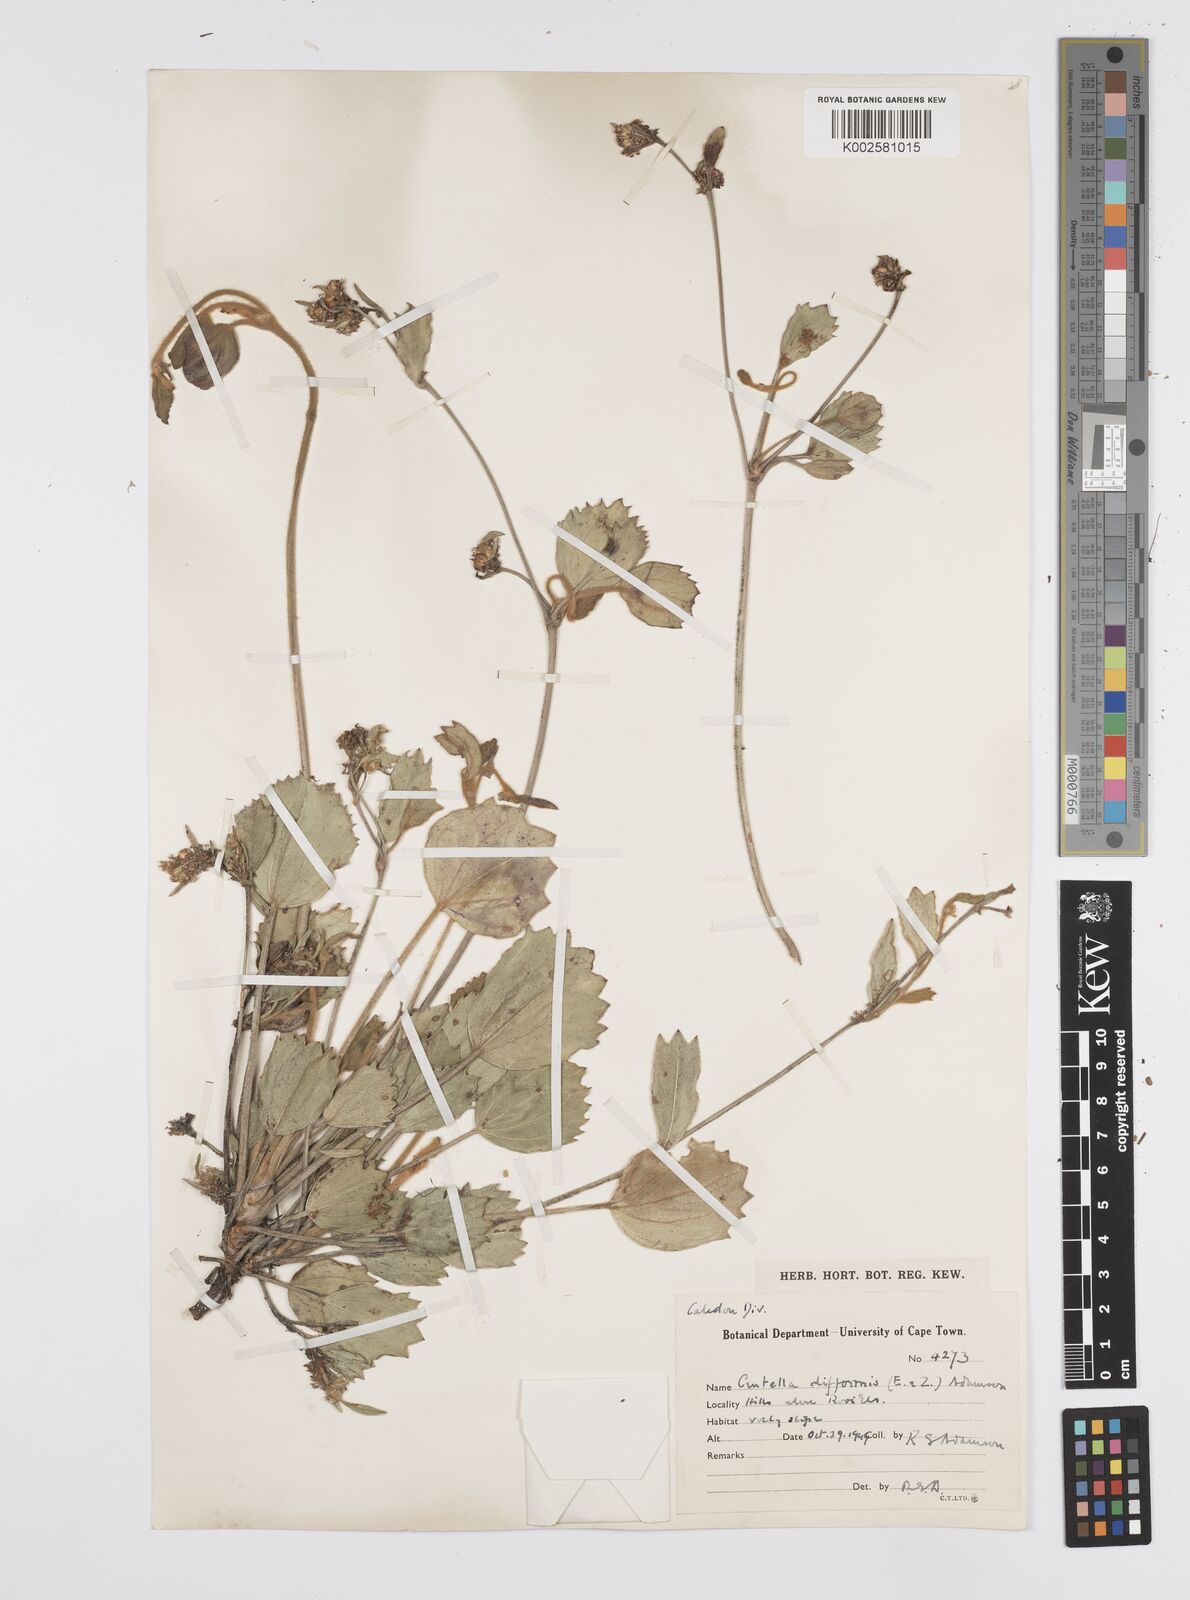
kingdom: Plantae
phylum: Tracheophyta
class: Magnoliopsida
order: Apiales
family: Apiaceae
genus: Centella
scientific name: Centella difformis
